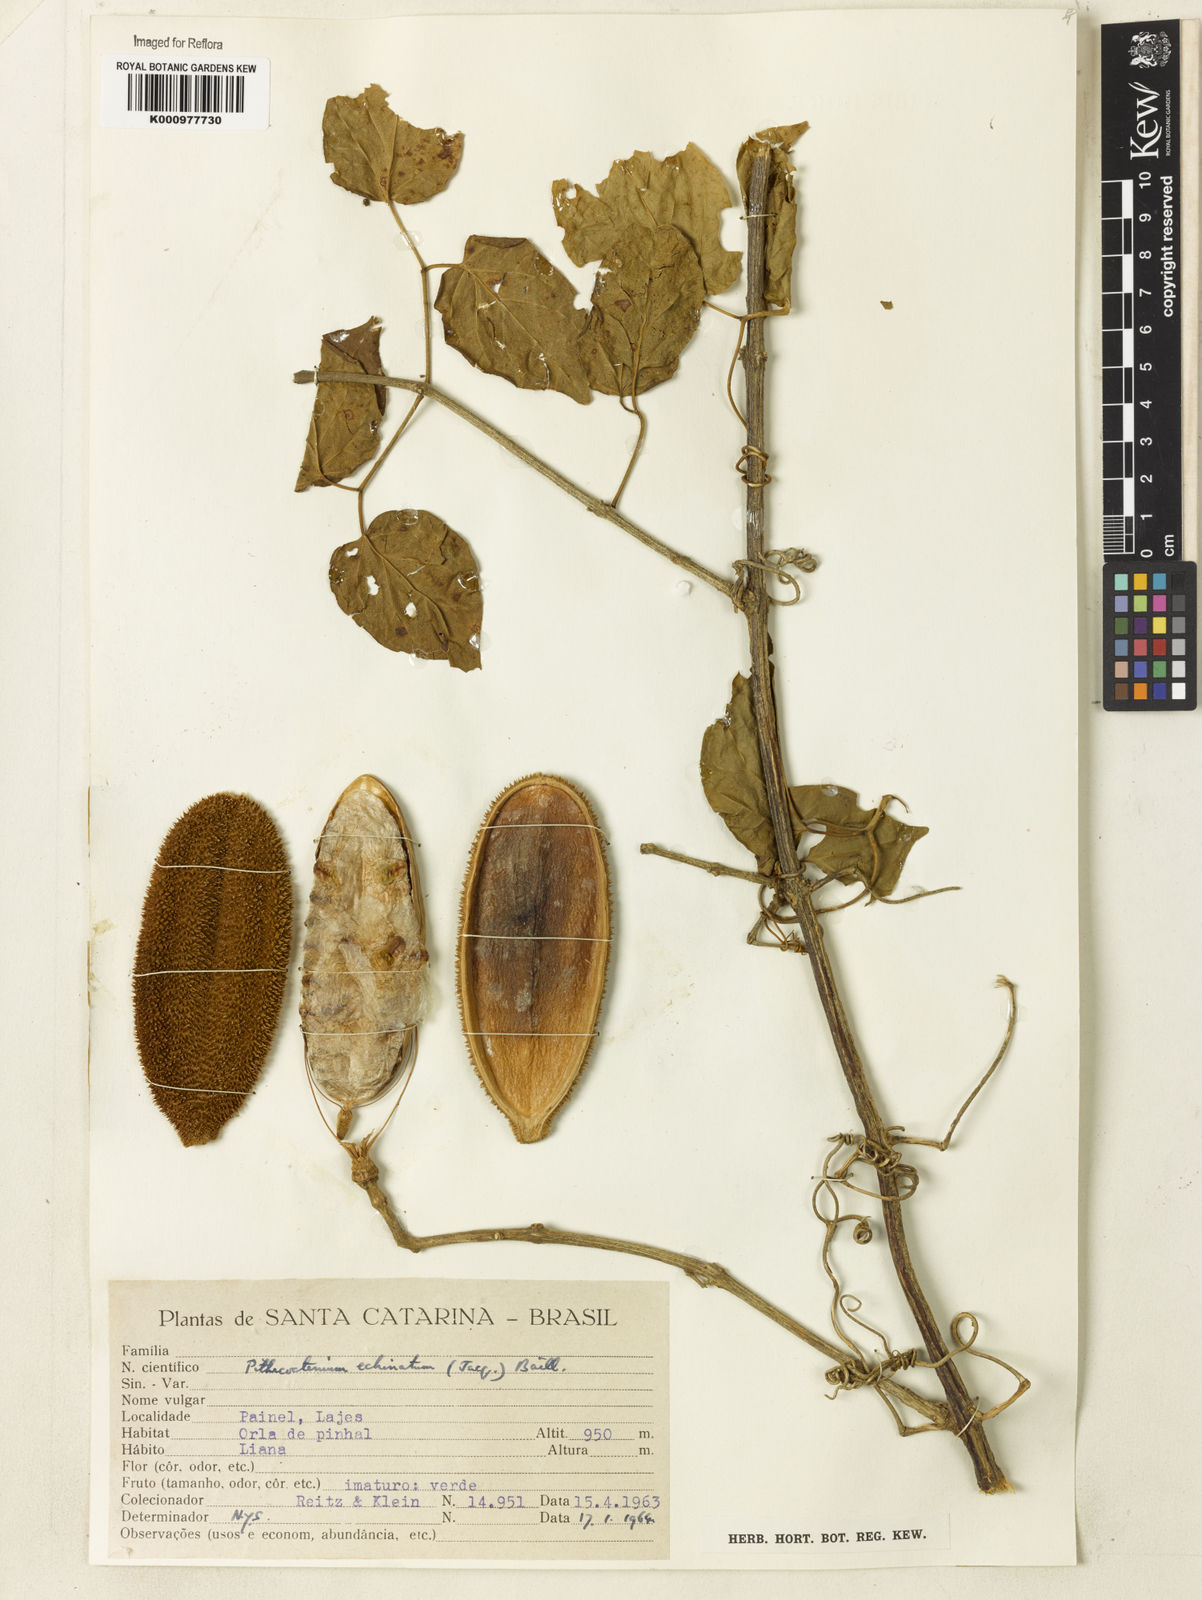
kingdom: Plantae
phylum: Tracheophyta
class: Magnoliopsida
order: Lamiales
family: Bignoniaceae
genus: Amphilophium
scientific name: Amphilophium crucigerum
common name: Monkey comb
